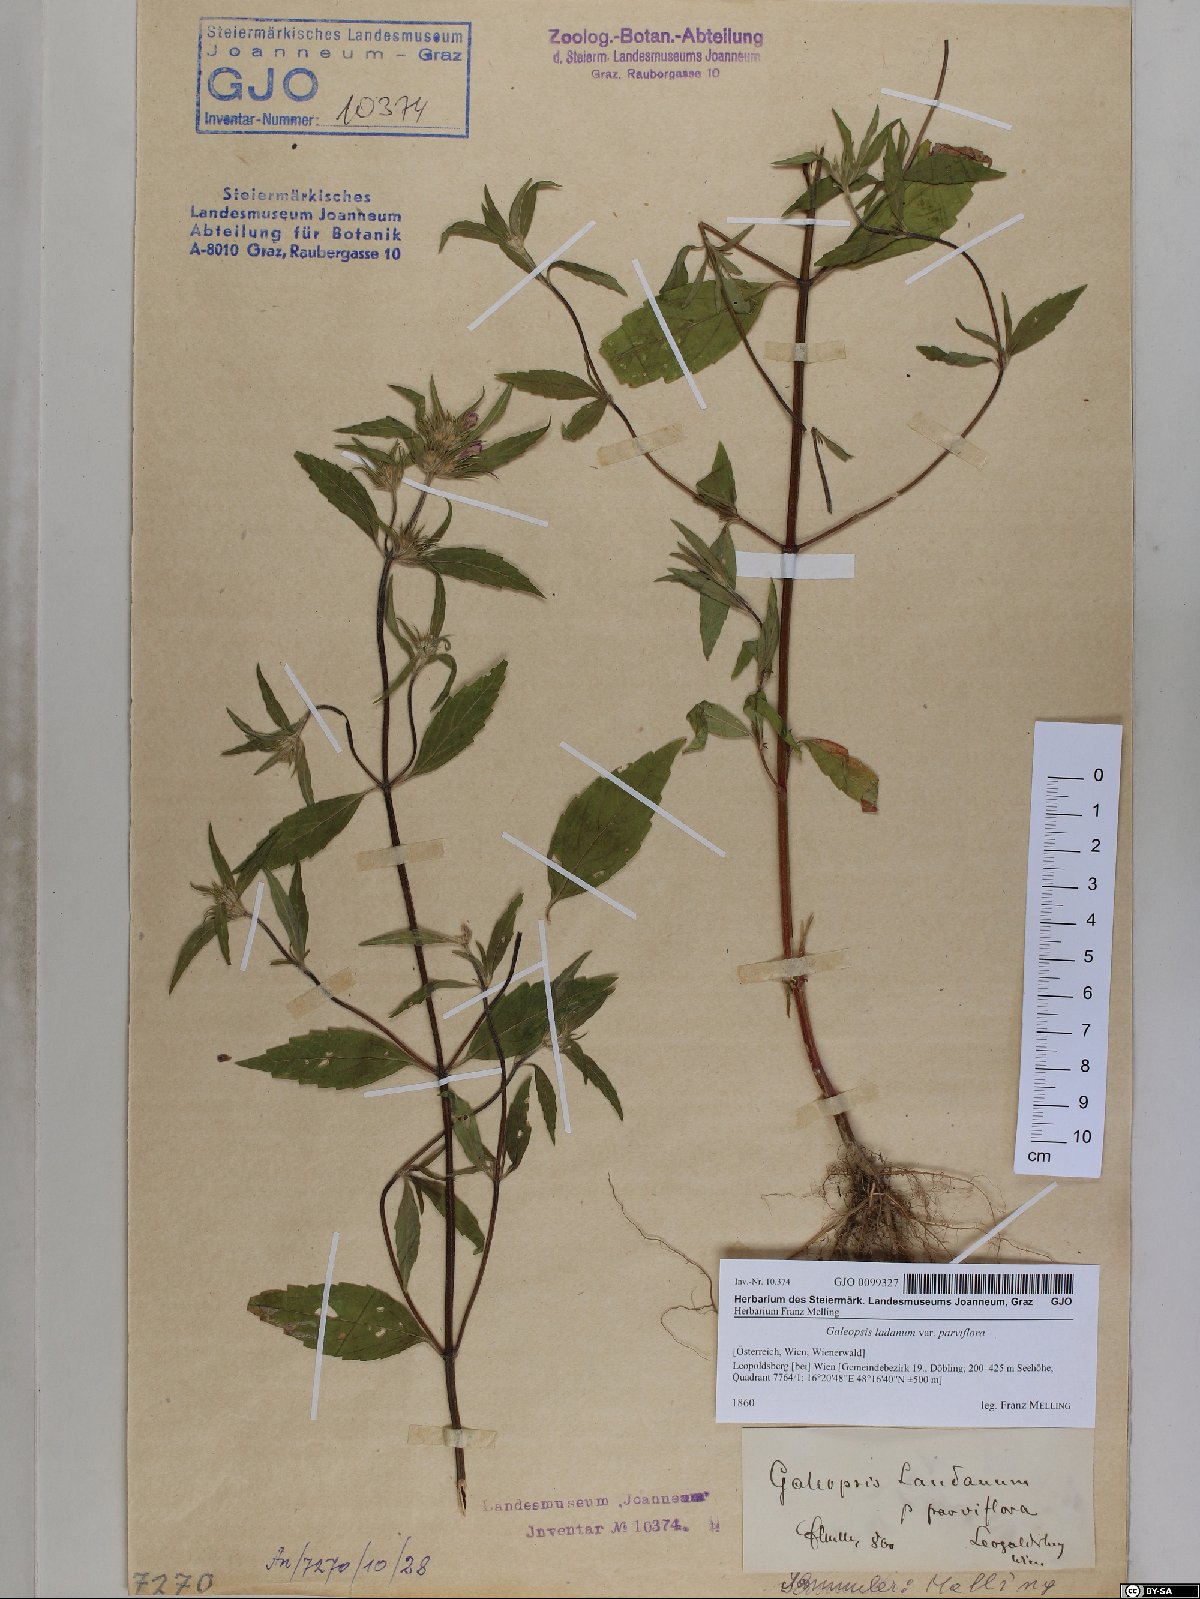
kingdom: Plantae
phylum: Tracheophyta
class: Magnoliopsida
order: Lamiales
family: Lamiaceae
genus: Galeopsis
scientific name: Galeopsis ladanum
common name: Broad-leaved hemp-nettle
